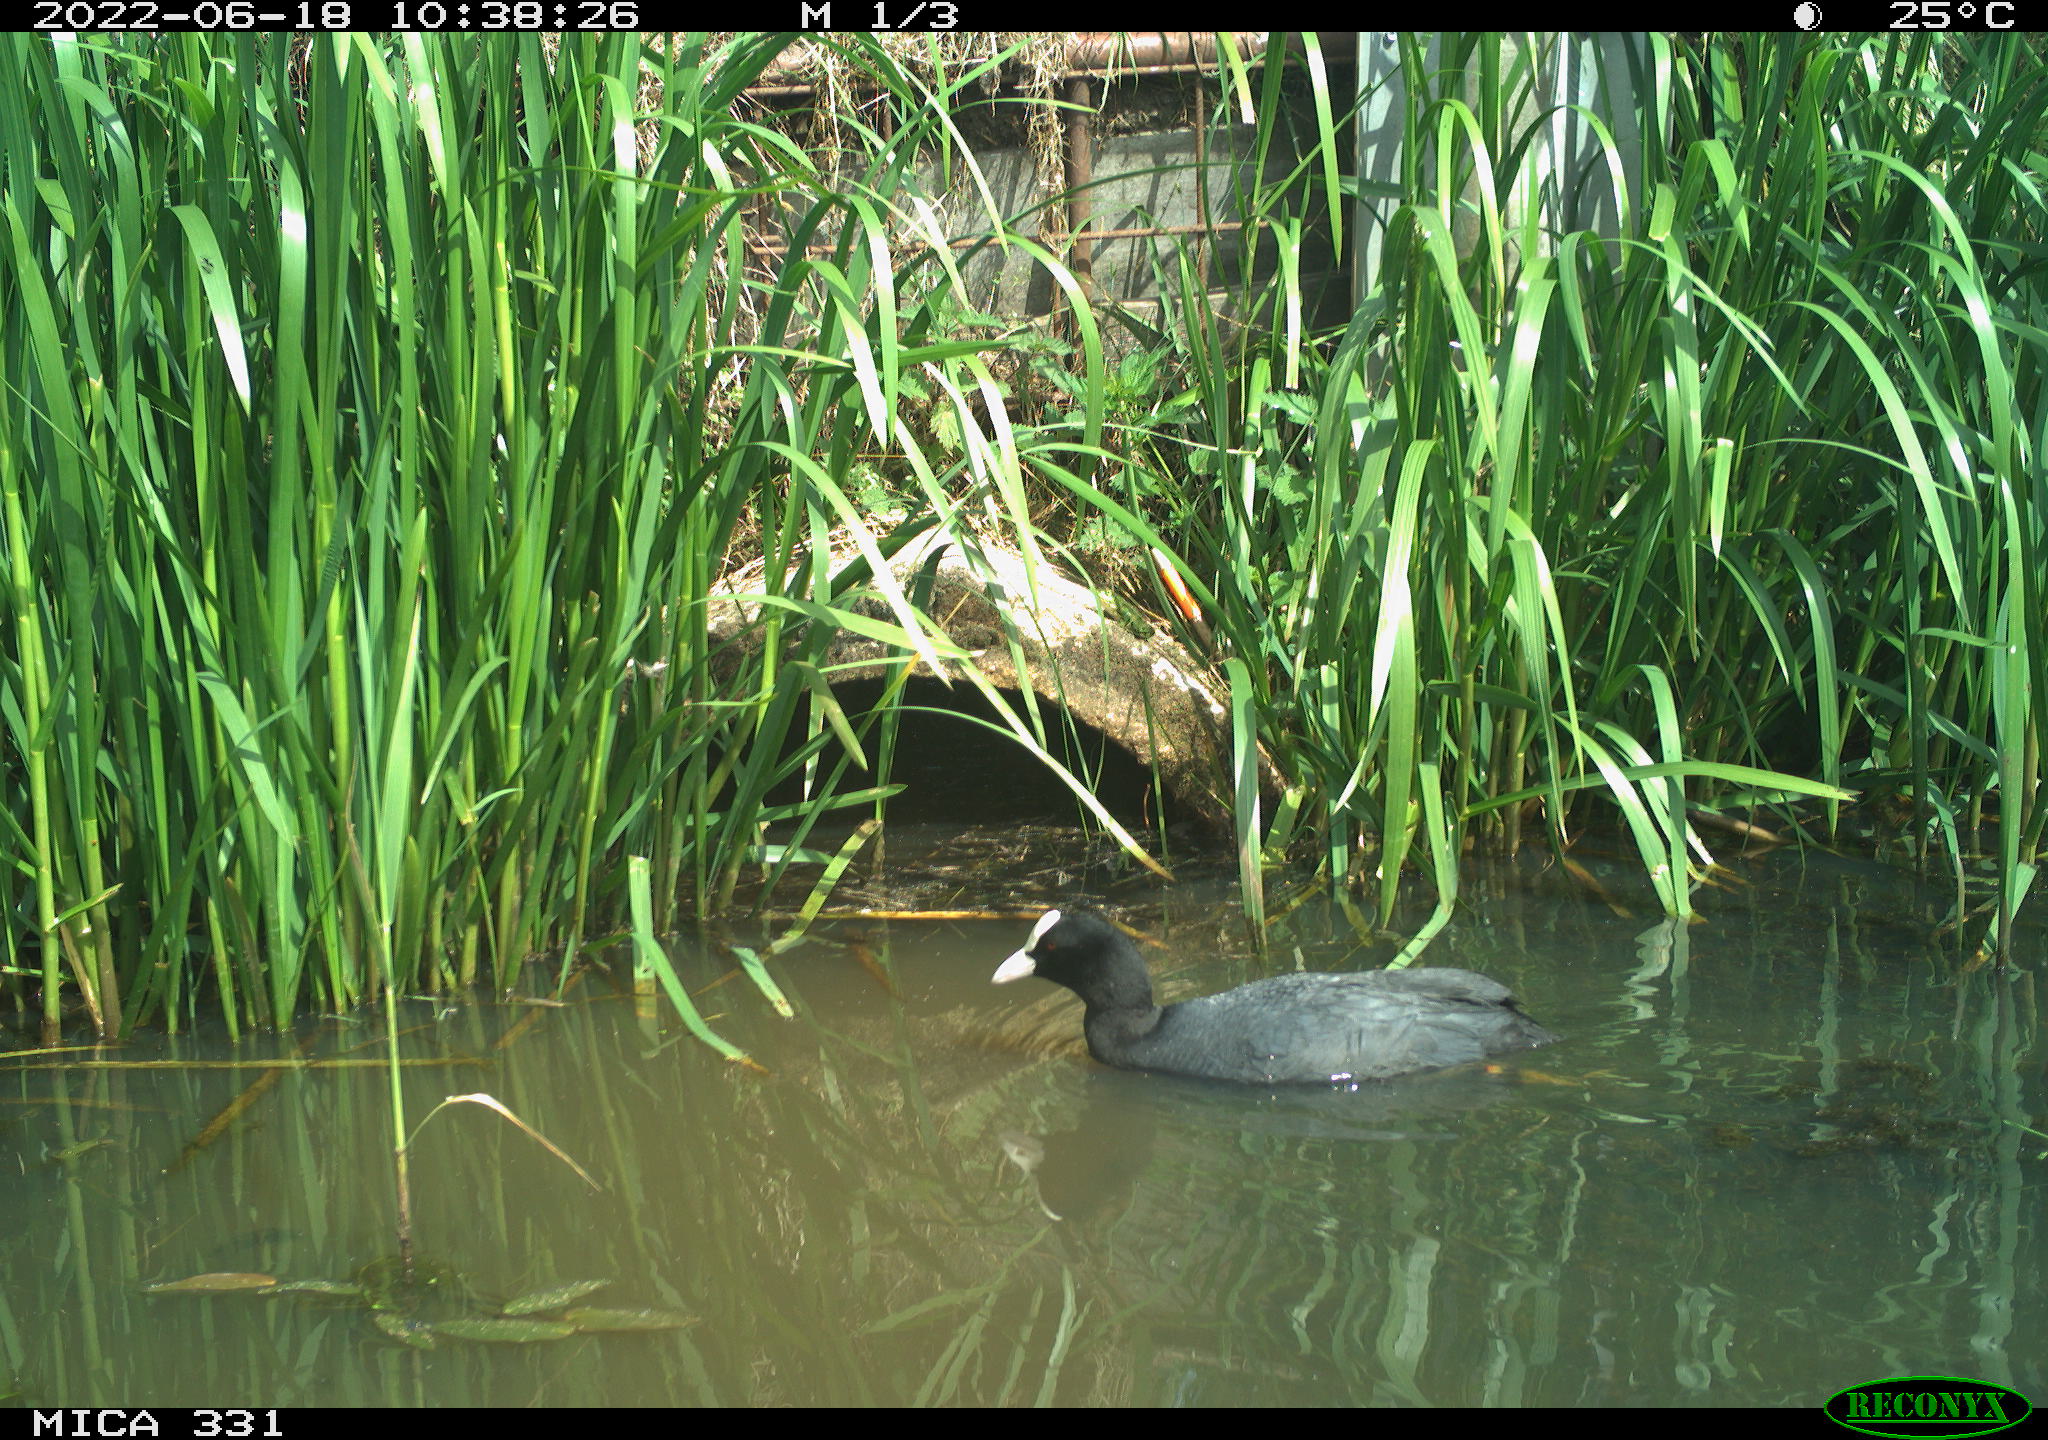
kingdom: Animalia
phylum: Chordata
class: Aves
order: Gruiformes
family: Rallidae
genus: Fulica
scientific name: Fulica atra
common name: Eurasian coot
